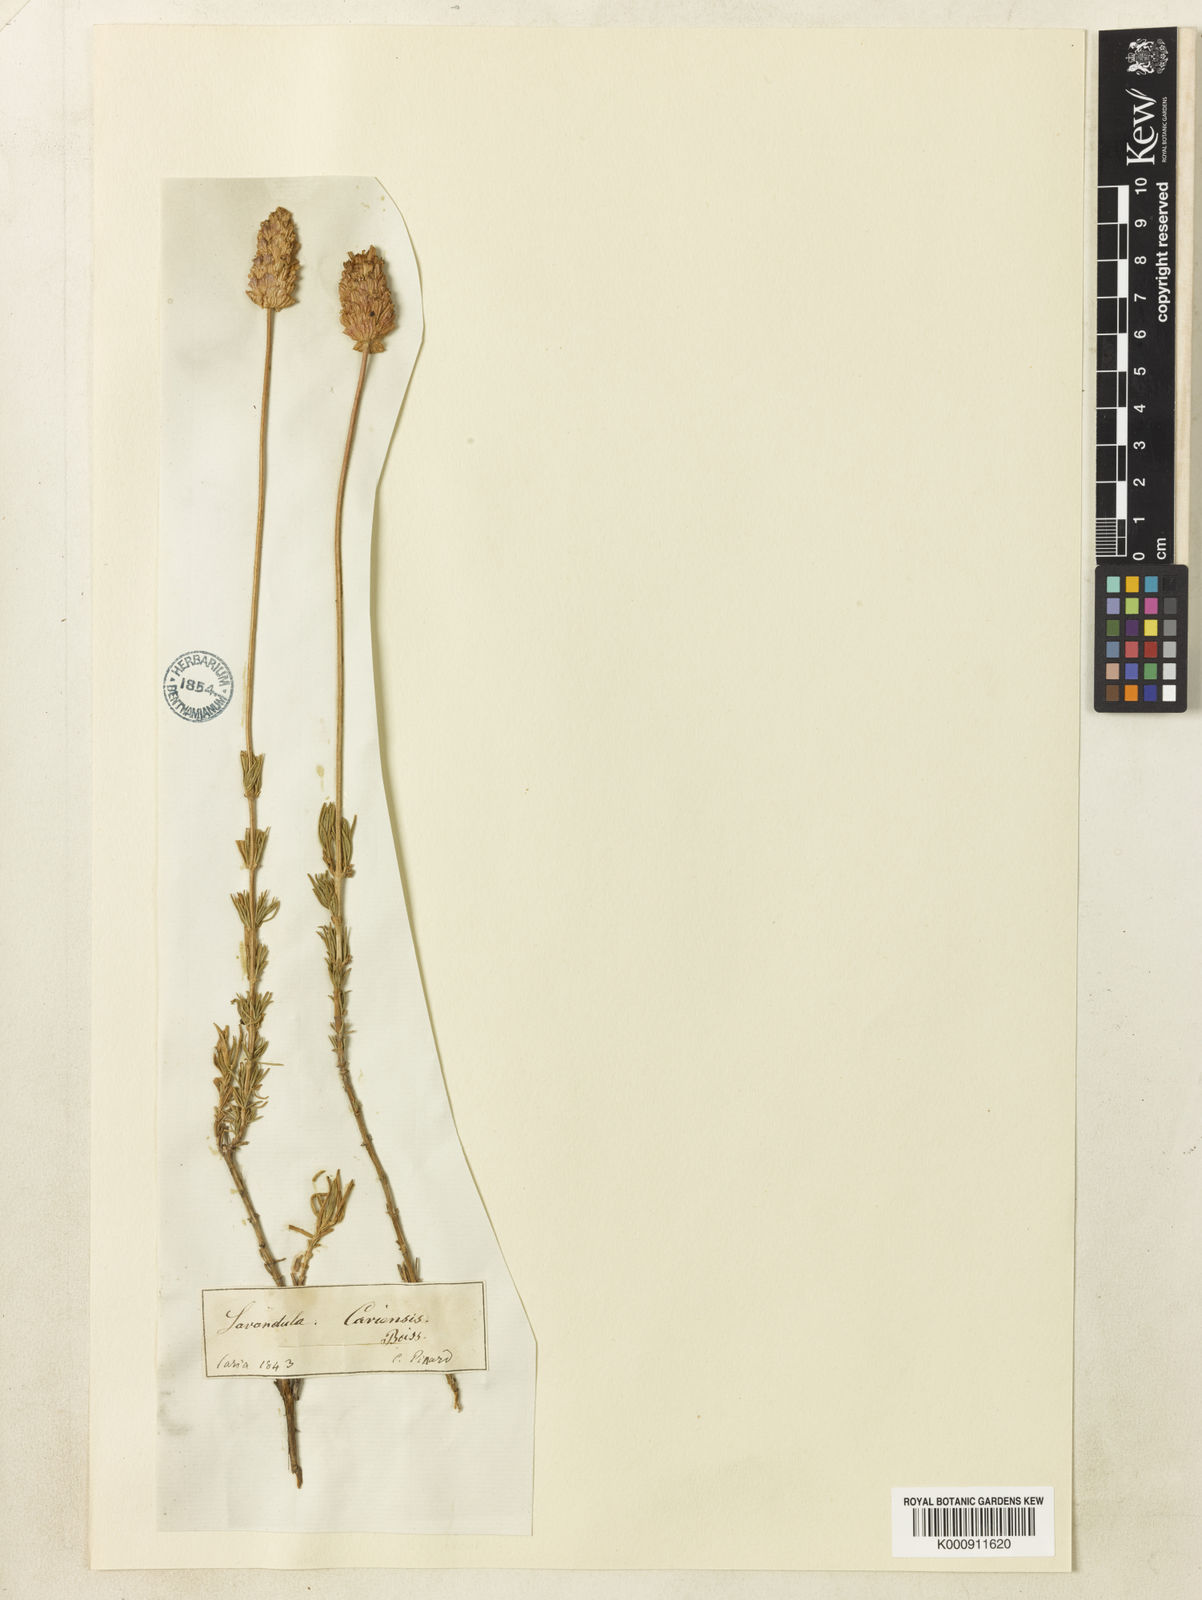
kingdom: Plantae
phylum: Tracheophyta
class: Magnoliopsida
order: Lamiales
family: Lamiaceae
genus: Lavandula
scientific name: Lavandula pedunculata
